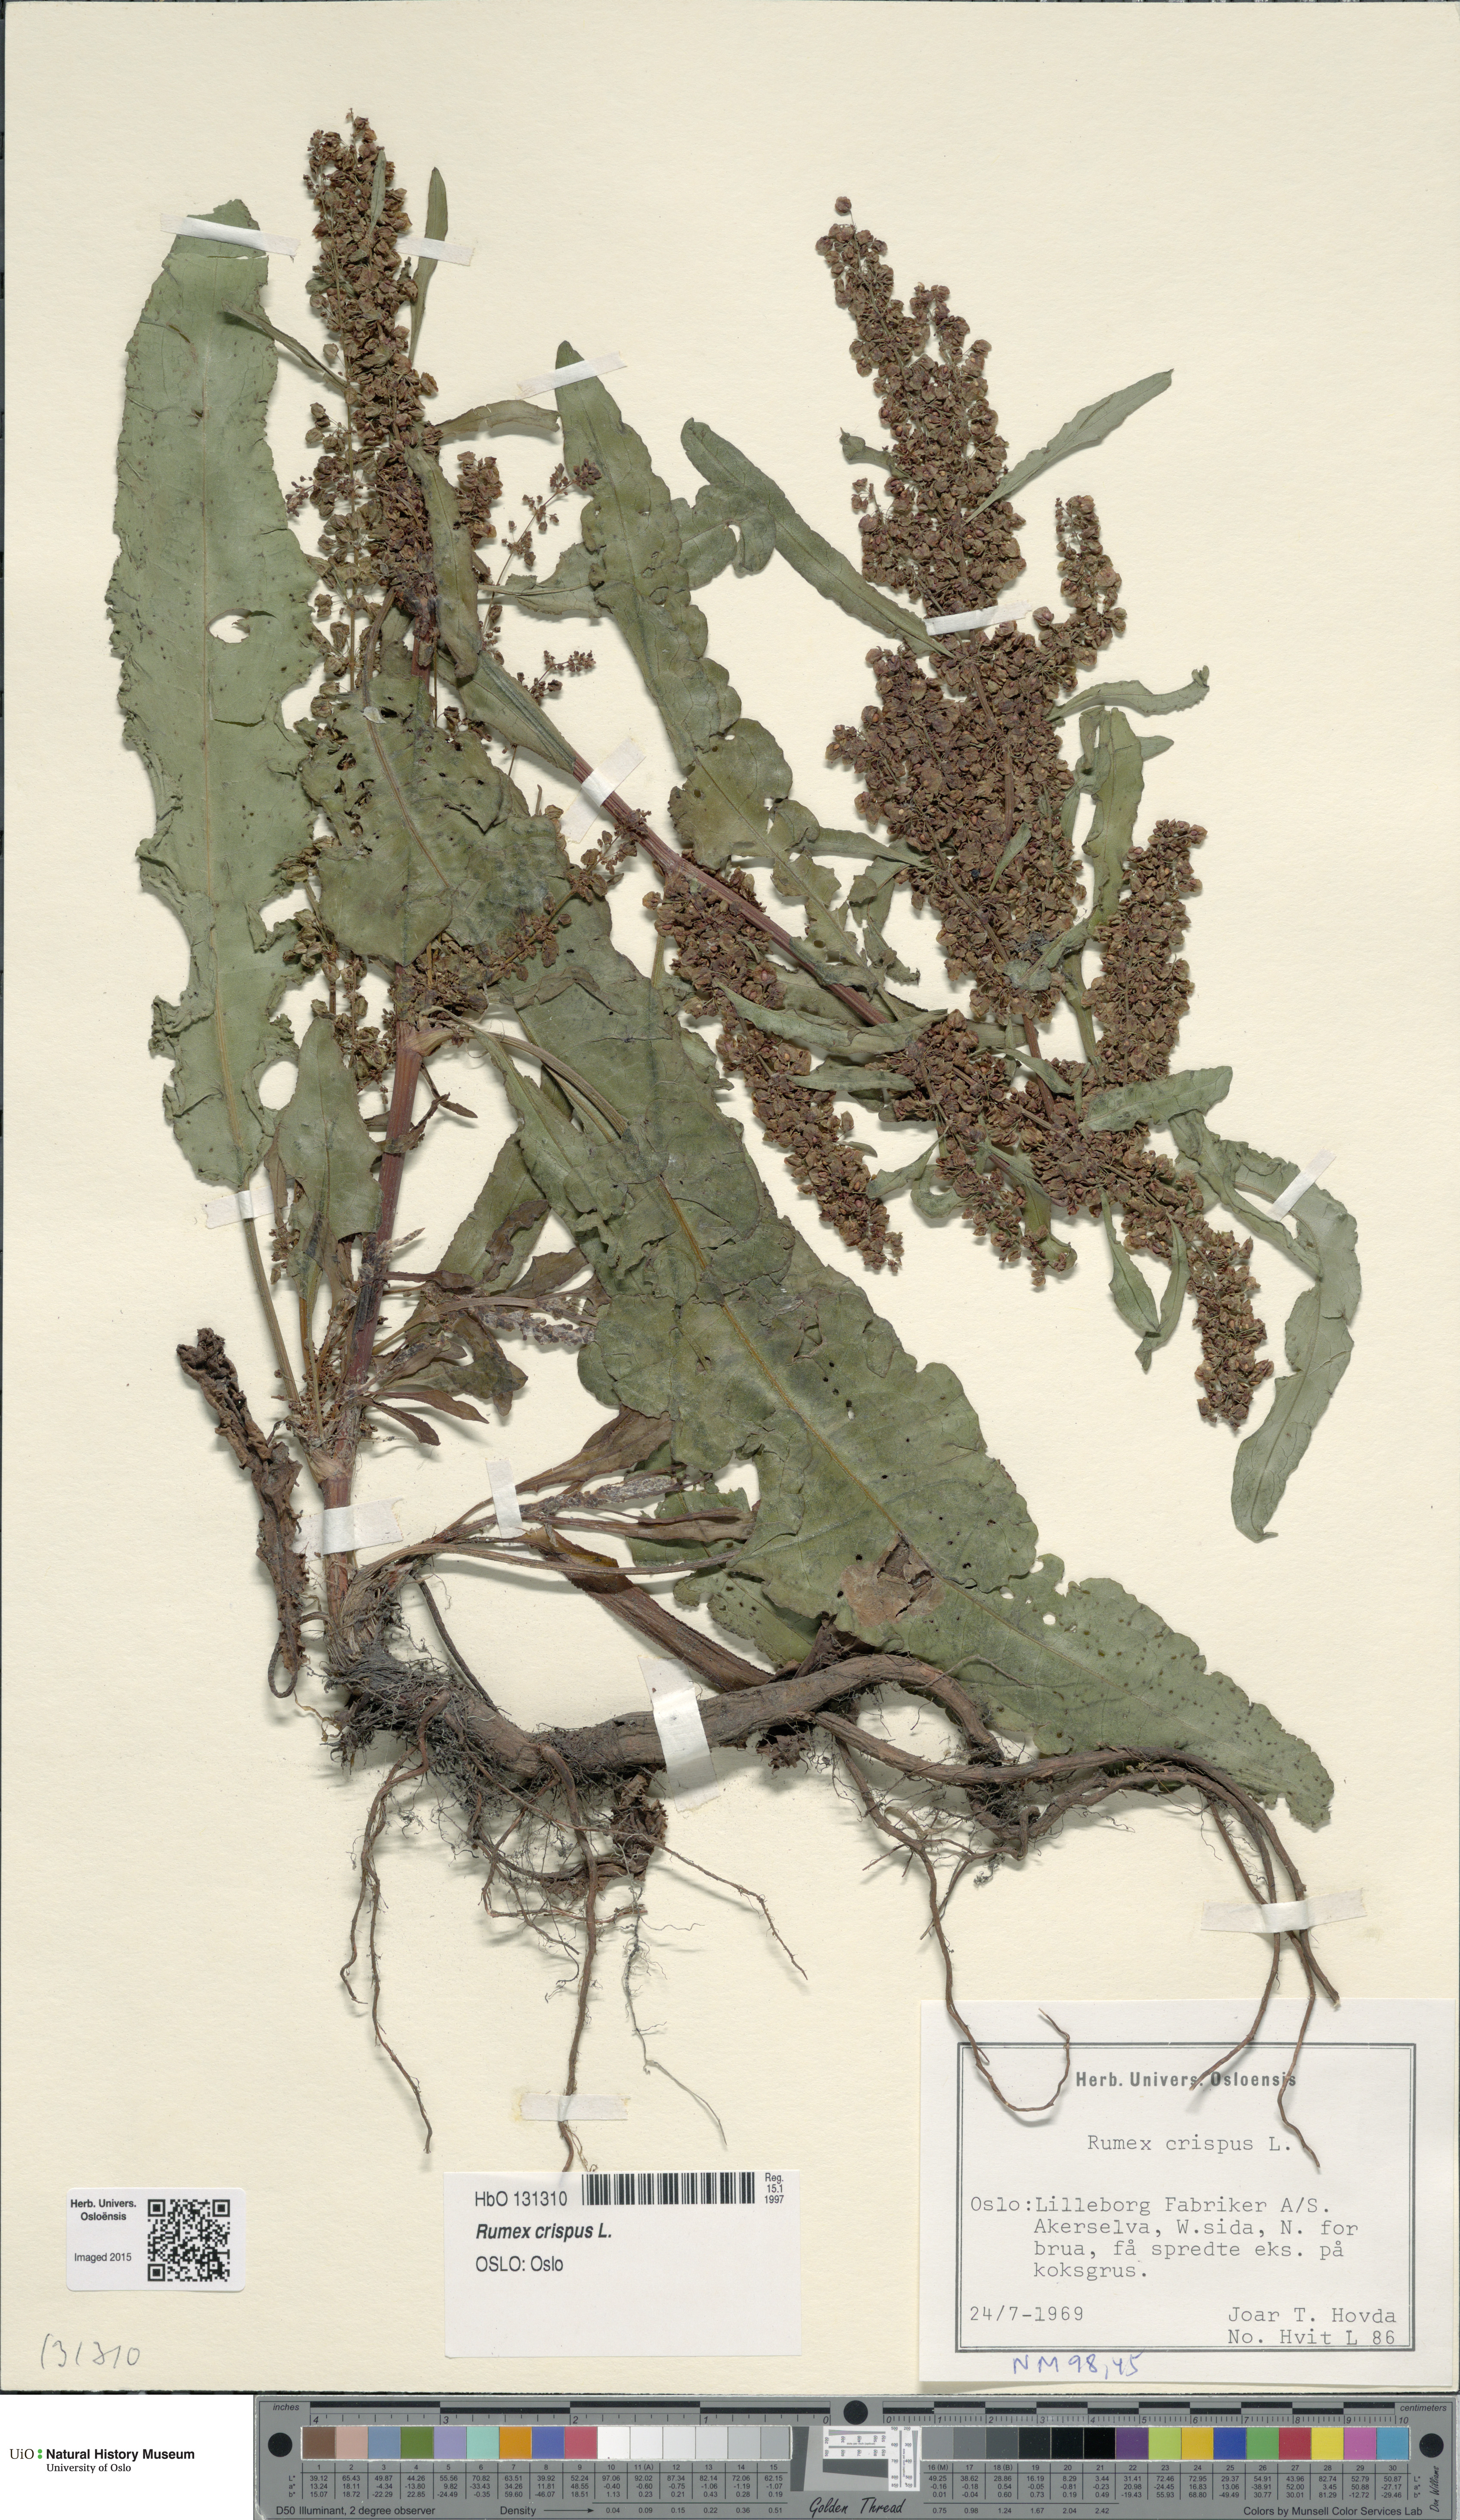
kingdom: Plantae
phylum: Tracheophyta
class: Magnoliopsida
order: Caryophyllales
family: Polygonaceae
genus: Rumex
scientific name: Rumex crispus
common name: Curled dock
